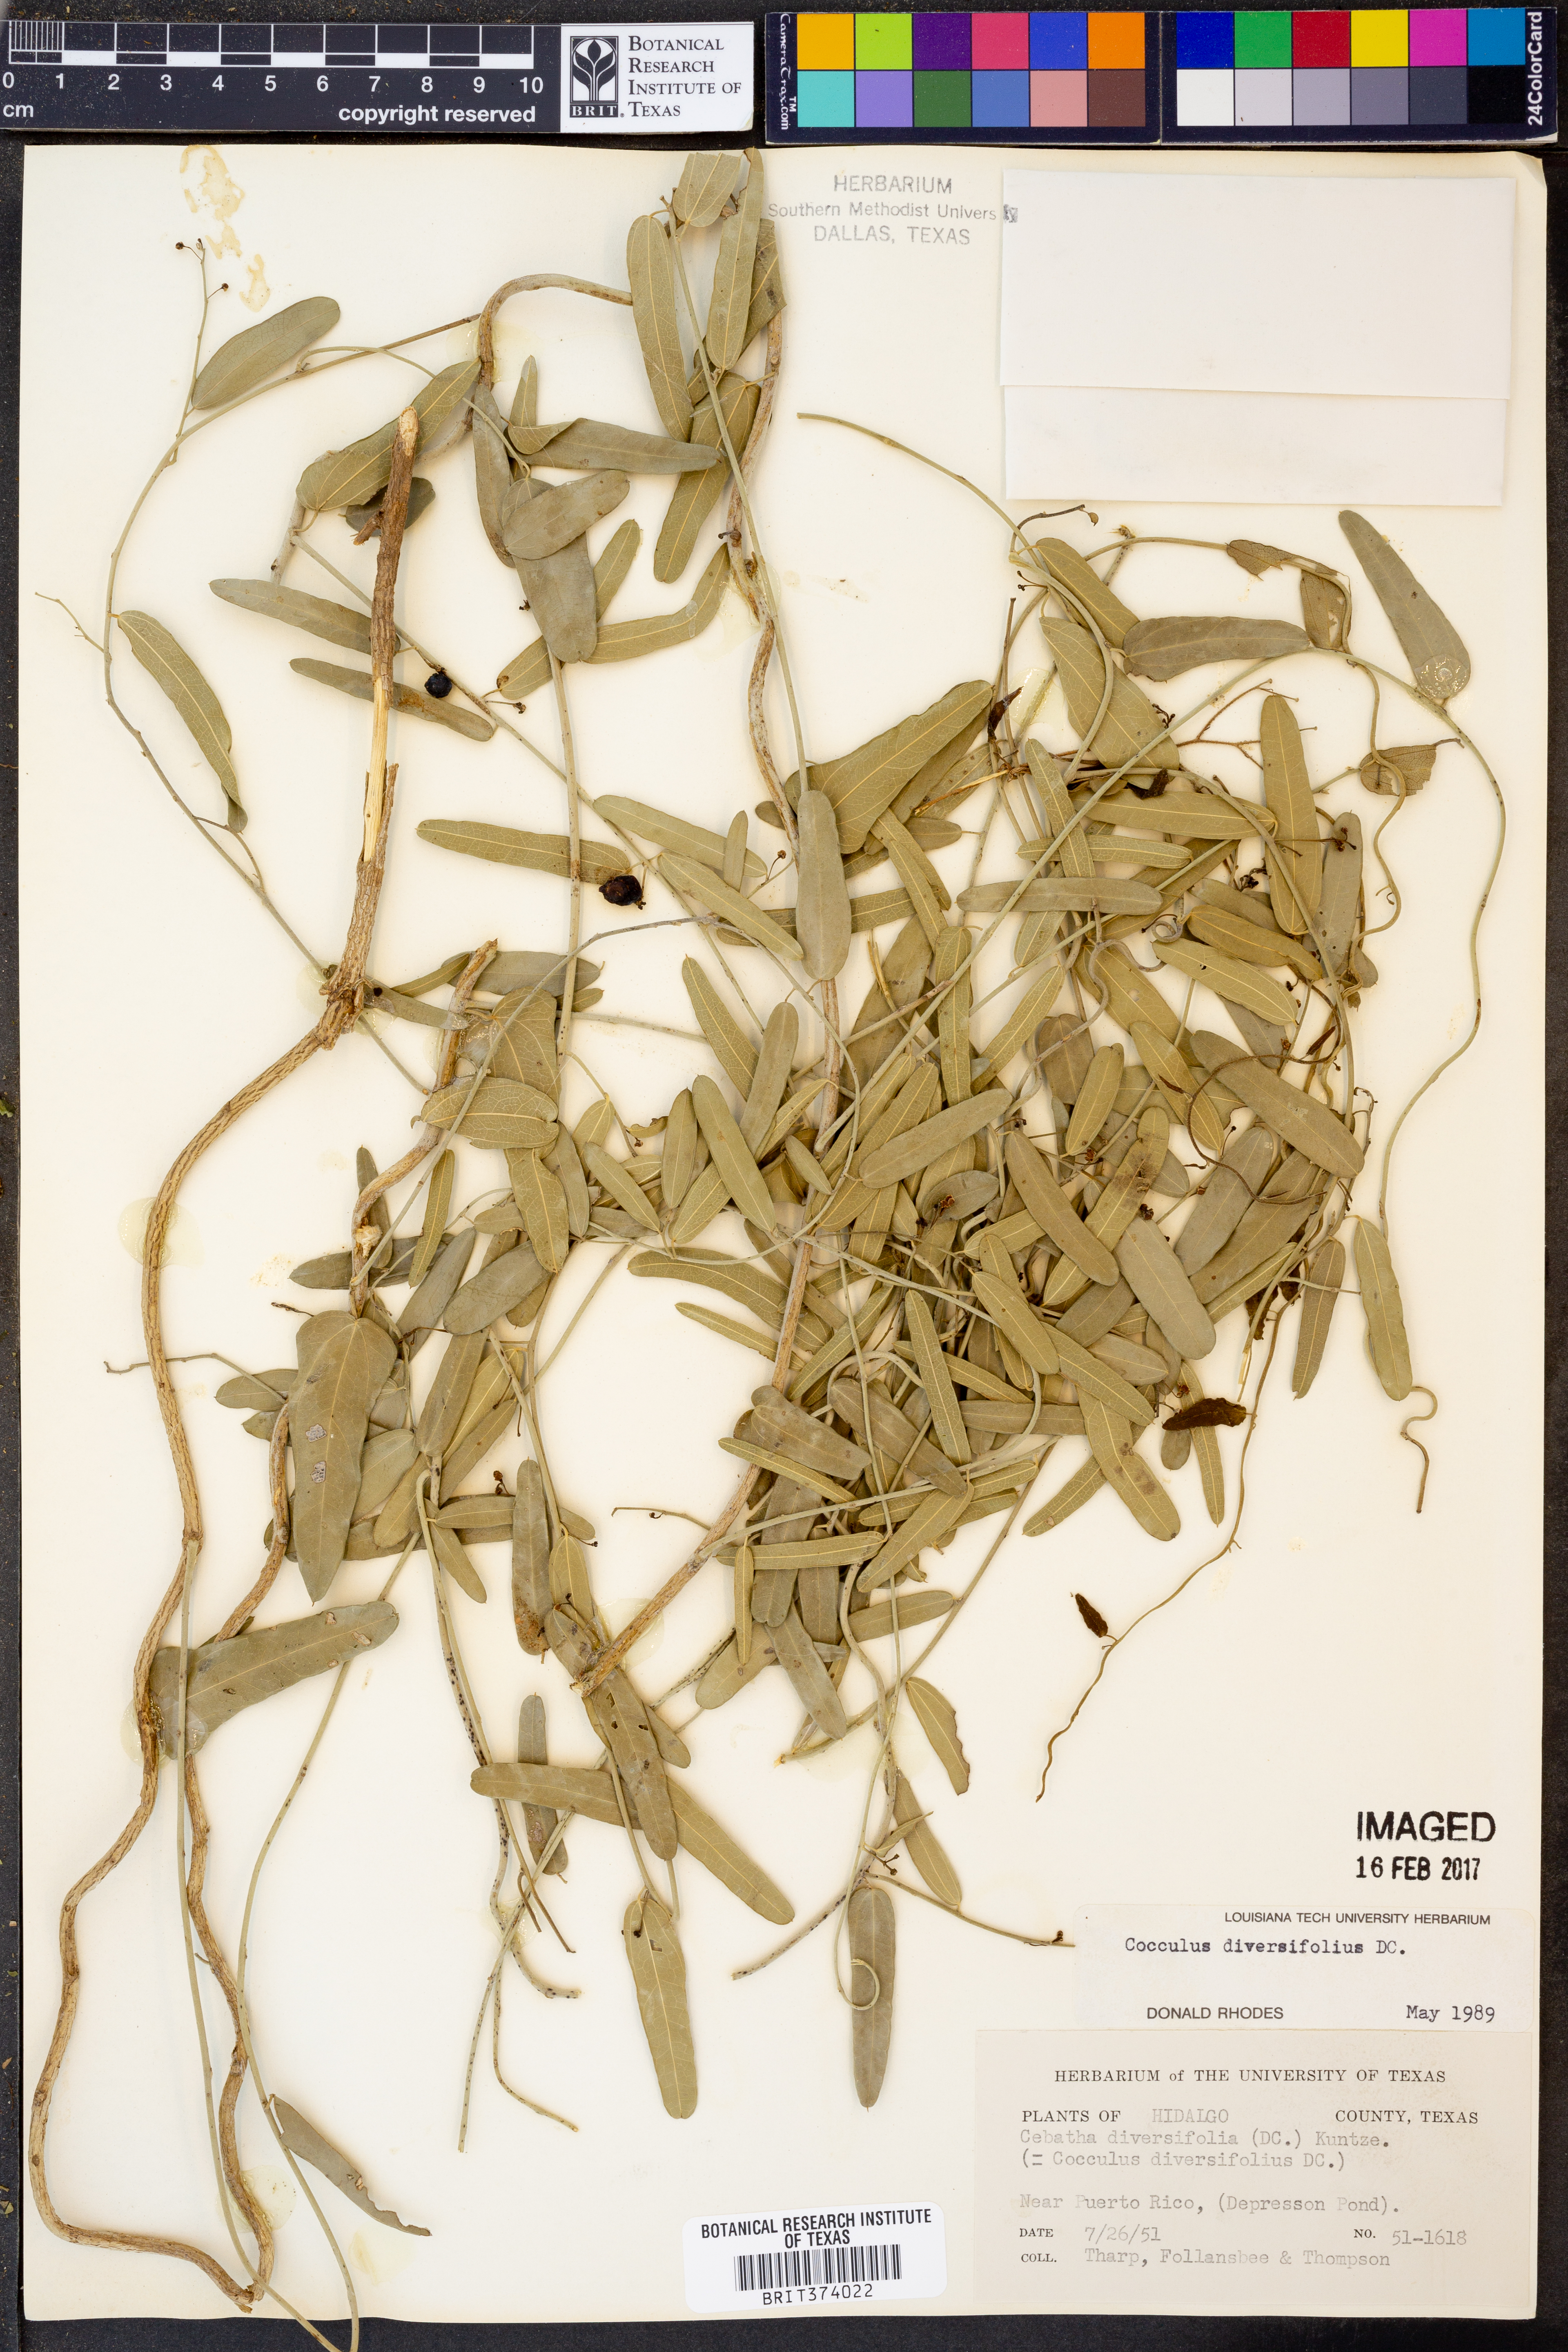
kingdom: Plantae
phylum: Tracheophyta
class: Magnoliopsida
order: Ranunculales
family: Menispermaceae
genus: Cocculus
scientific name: Cocculus diversifolius
